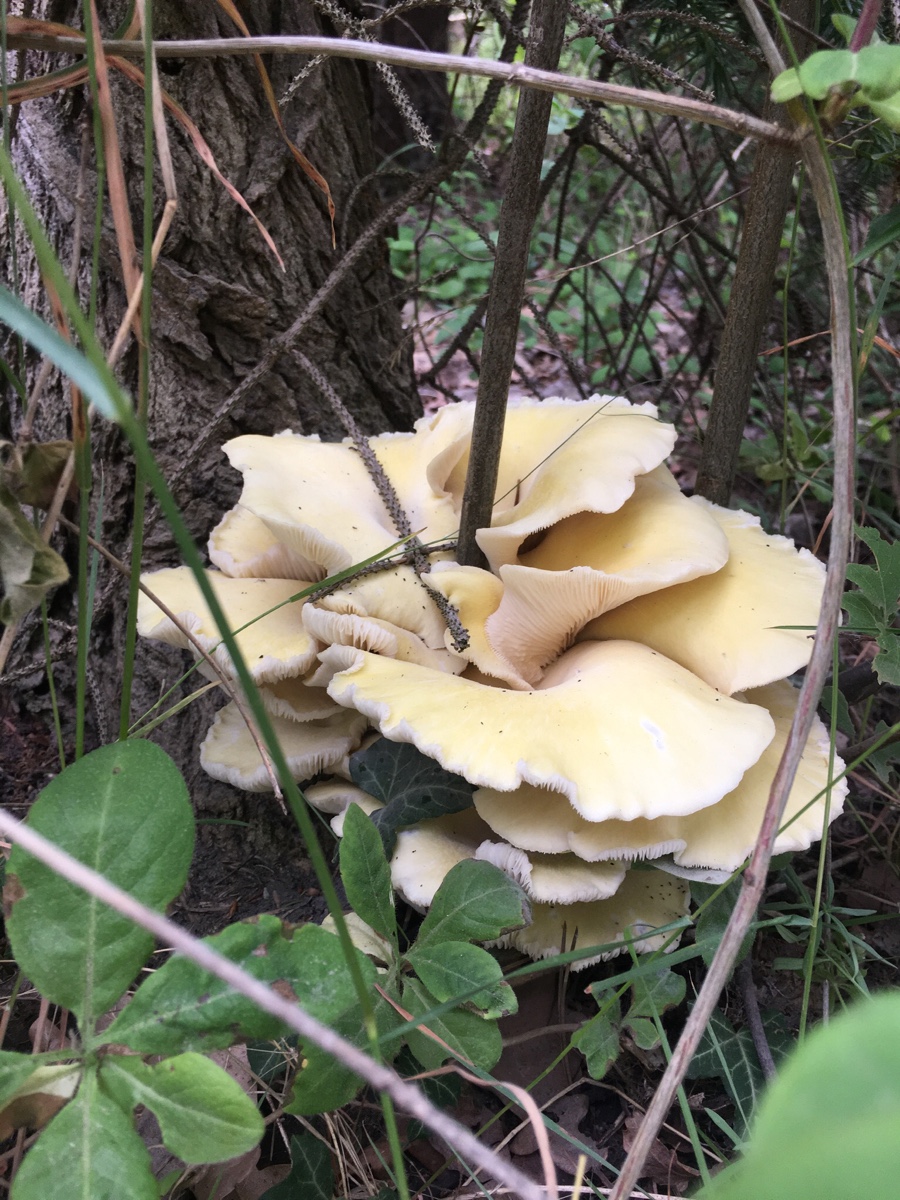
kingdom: Fungi
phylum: Basidiomycota
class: Agaricomycetes
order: Agaricales
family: Pleurotaceae
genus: Pleurotus
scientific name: Pleurotus citrinopileatus
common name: gul østershat
